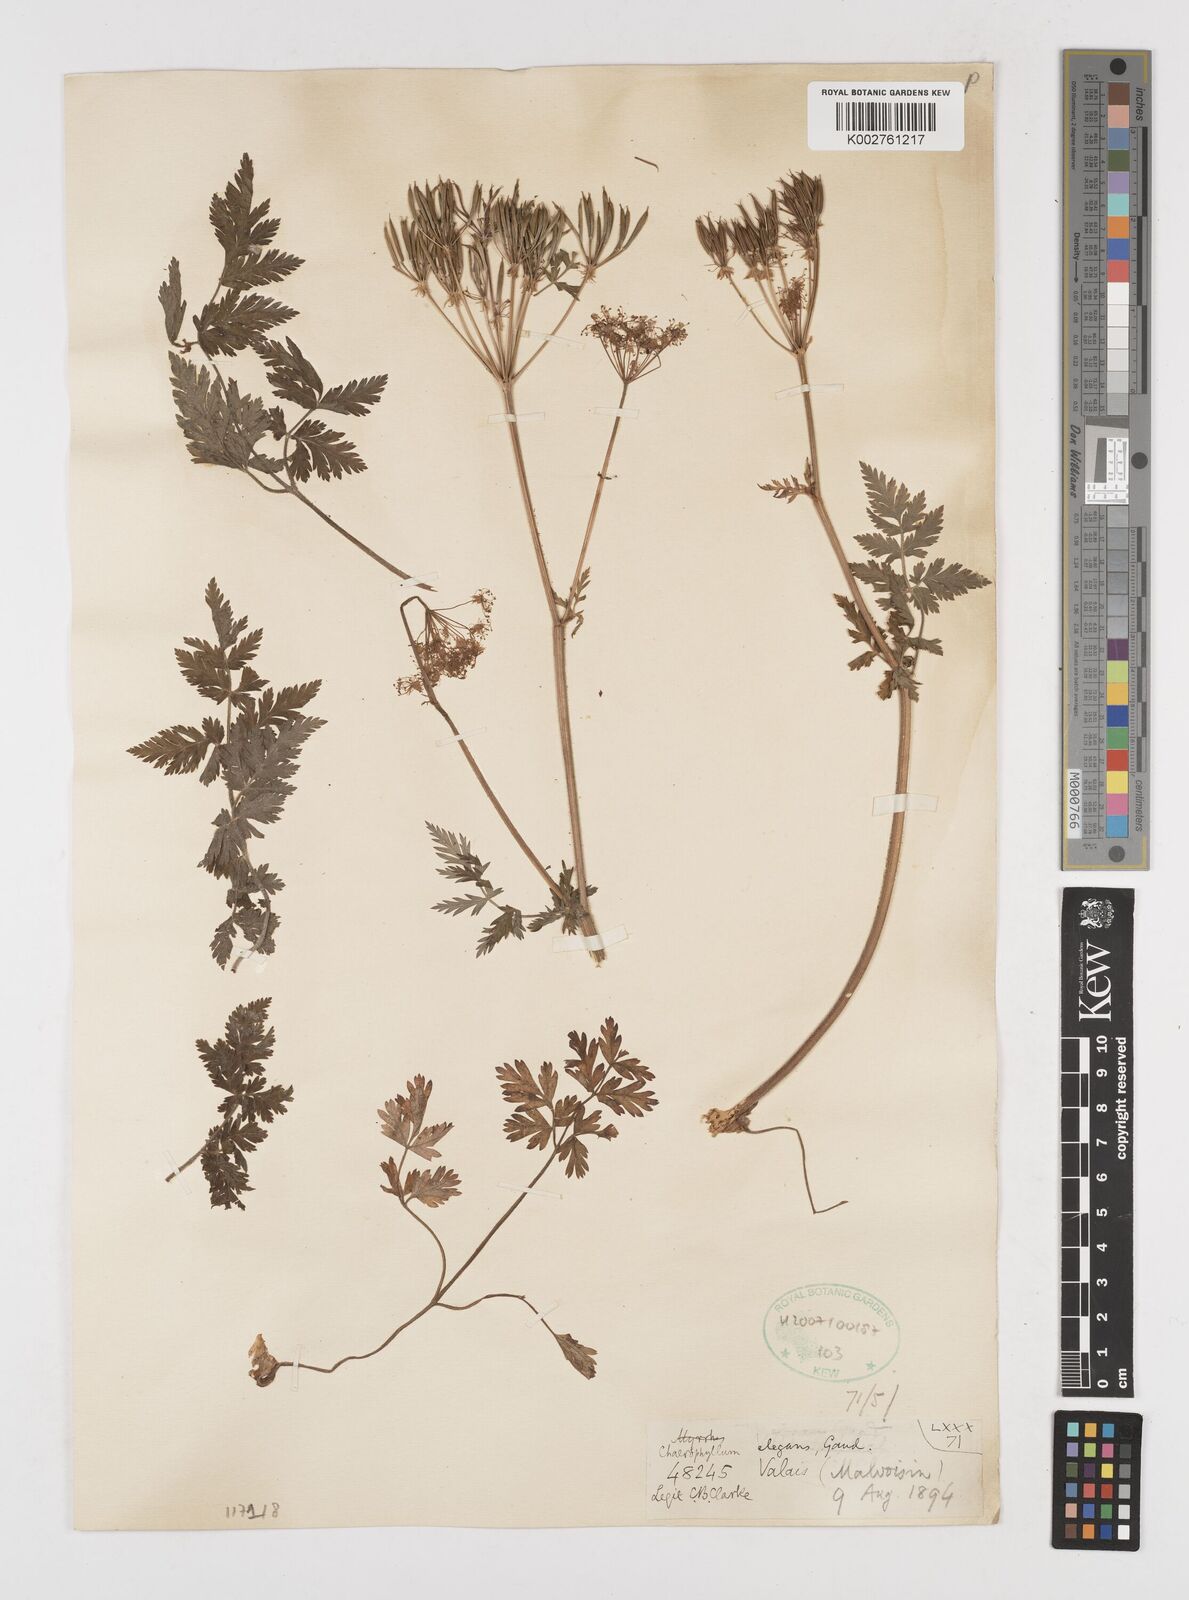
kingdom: Plantae
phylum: Tracheophyta
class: Magnoliopsida
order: Apiales
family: Apiaceae
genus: Chaerophyllum
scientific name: Chaerophyllum elegans
